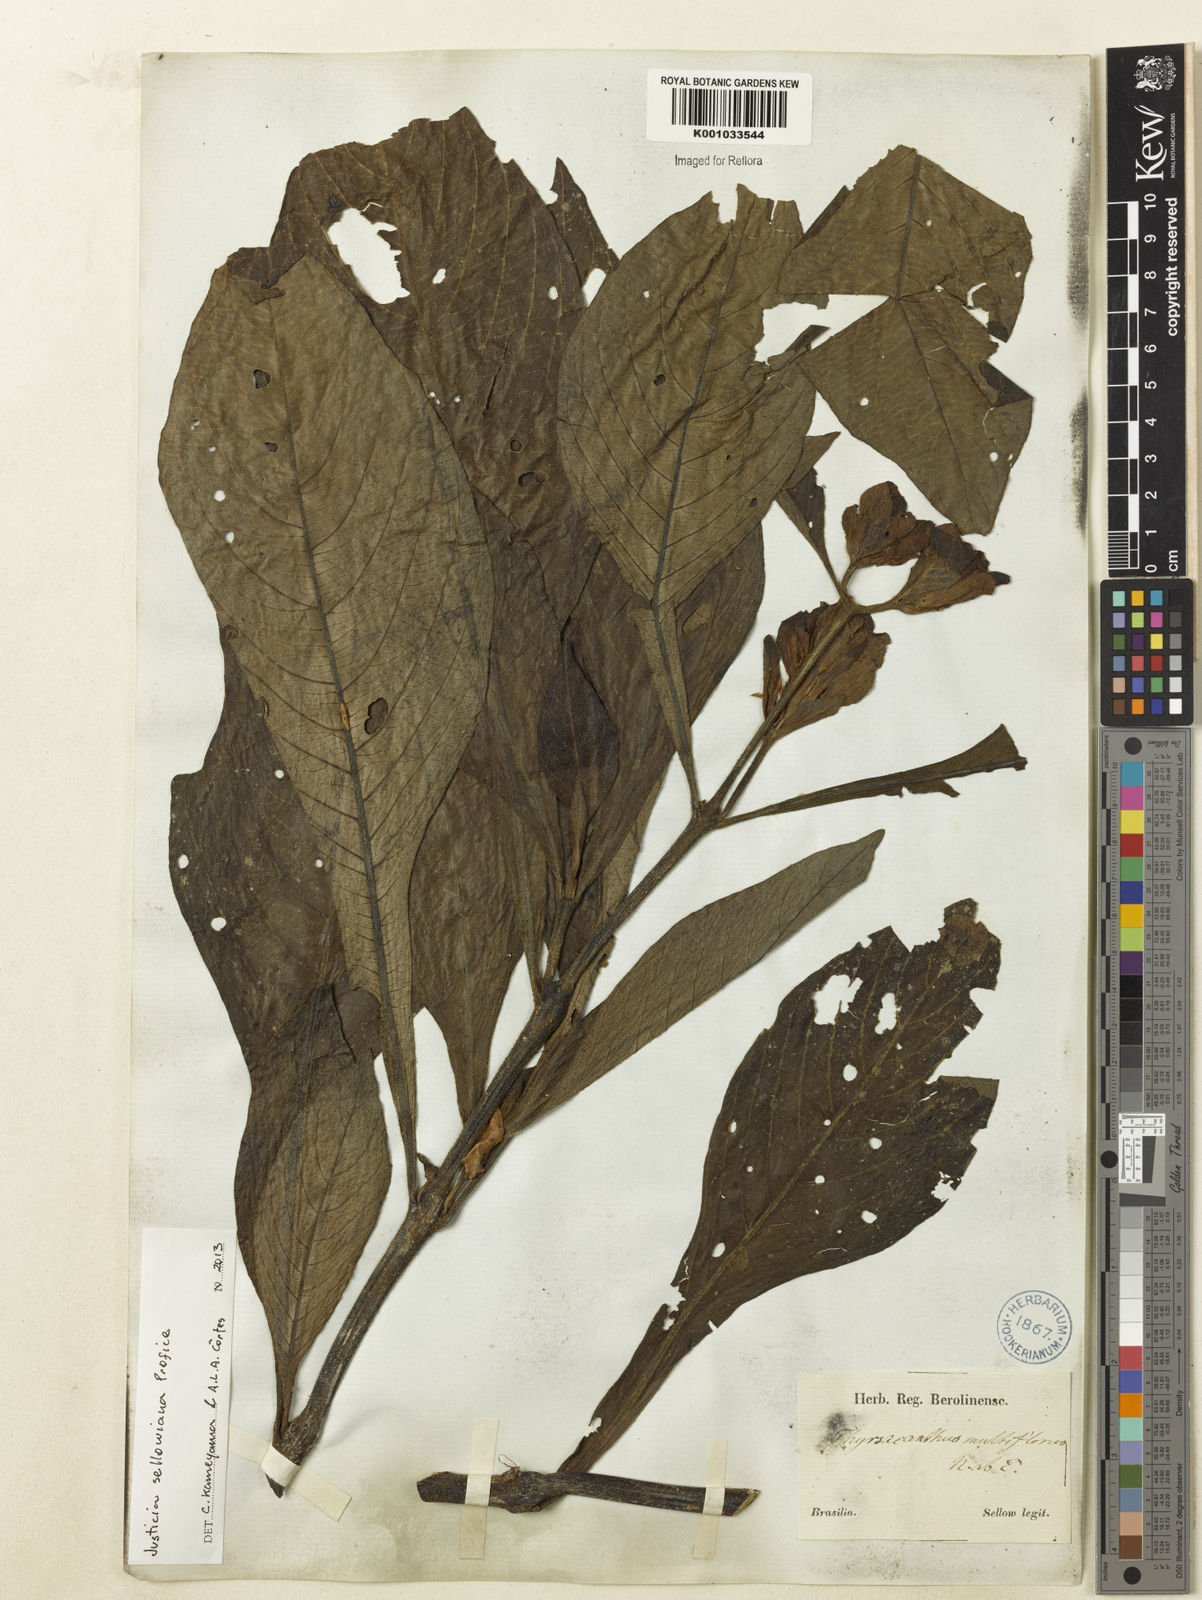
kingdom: Plantae
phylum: Tracheophyta
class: Magnoliopsida
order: Lamiales
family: Acanthaceae
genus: Justicia
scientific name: Justicia sellowiana
